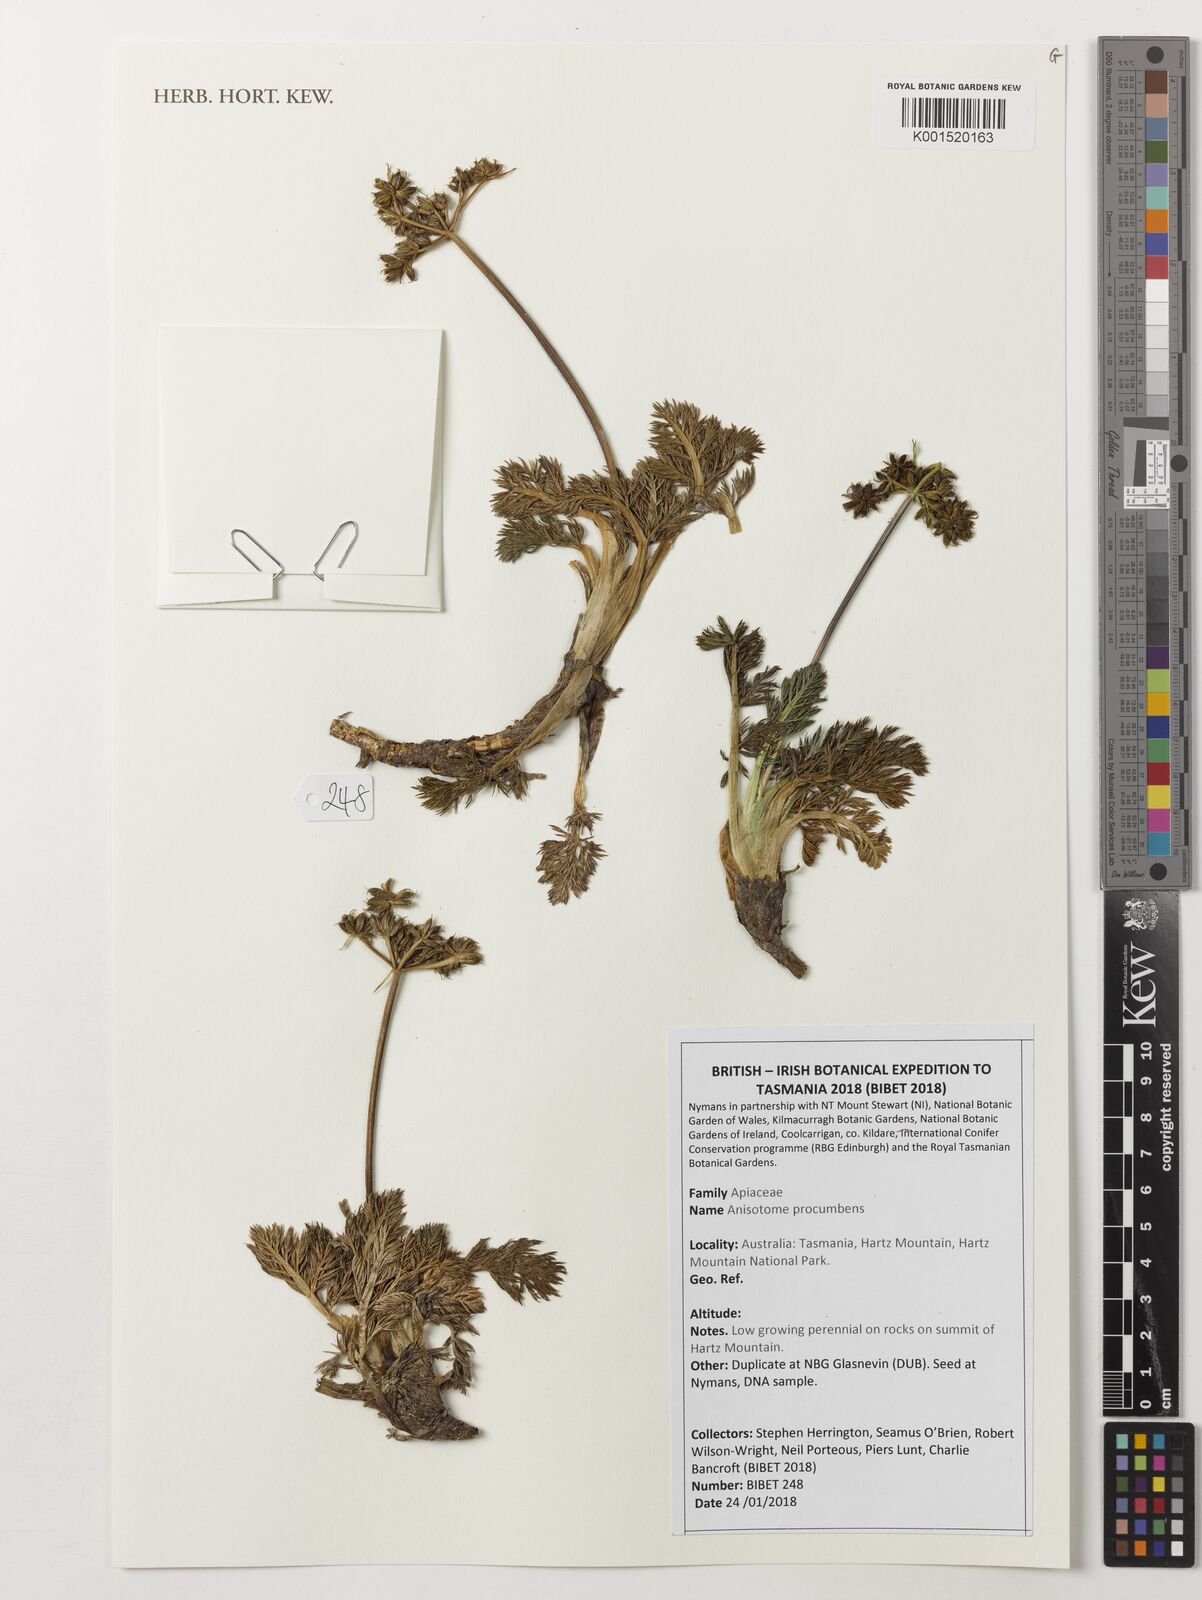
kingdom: Plantae
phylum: Tracheophyta
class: Magnoliopsida
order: Apiales
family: Apiaceae
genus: Anisotome
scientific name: Anisotome procumbens
